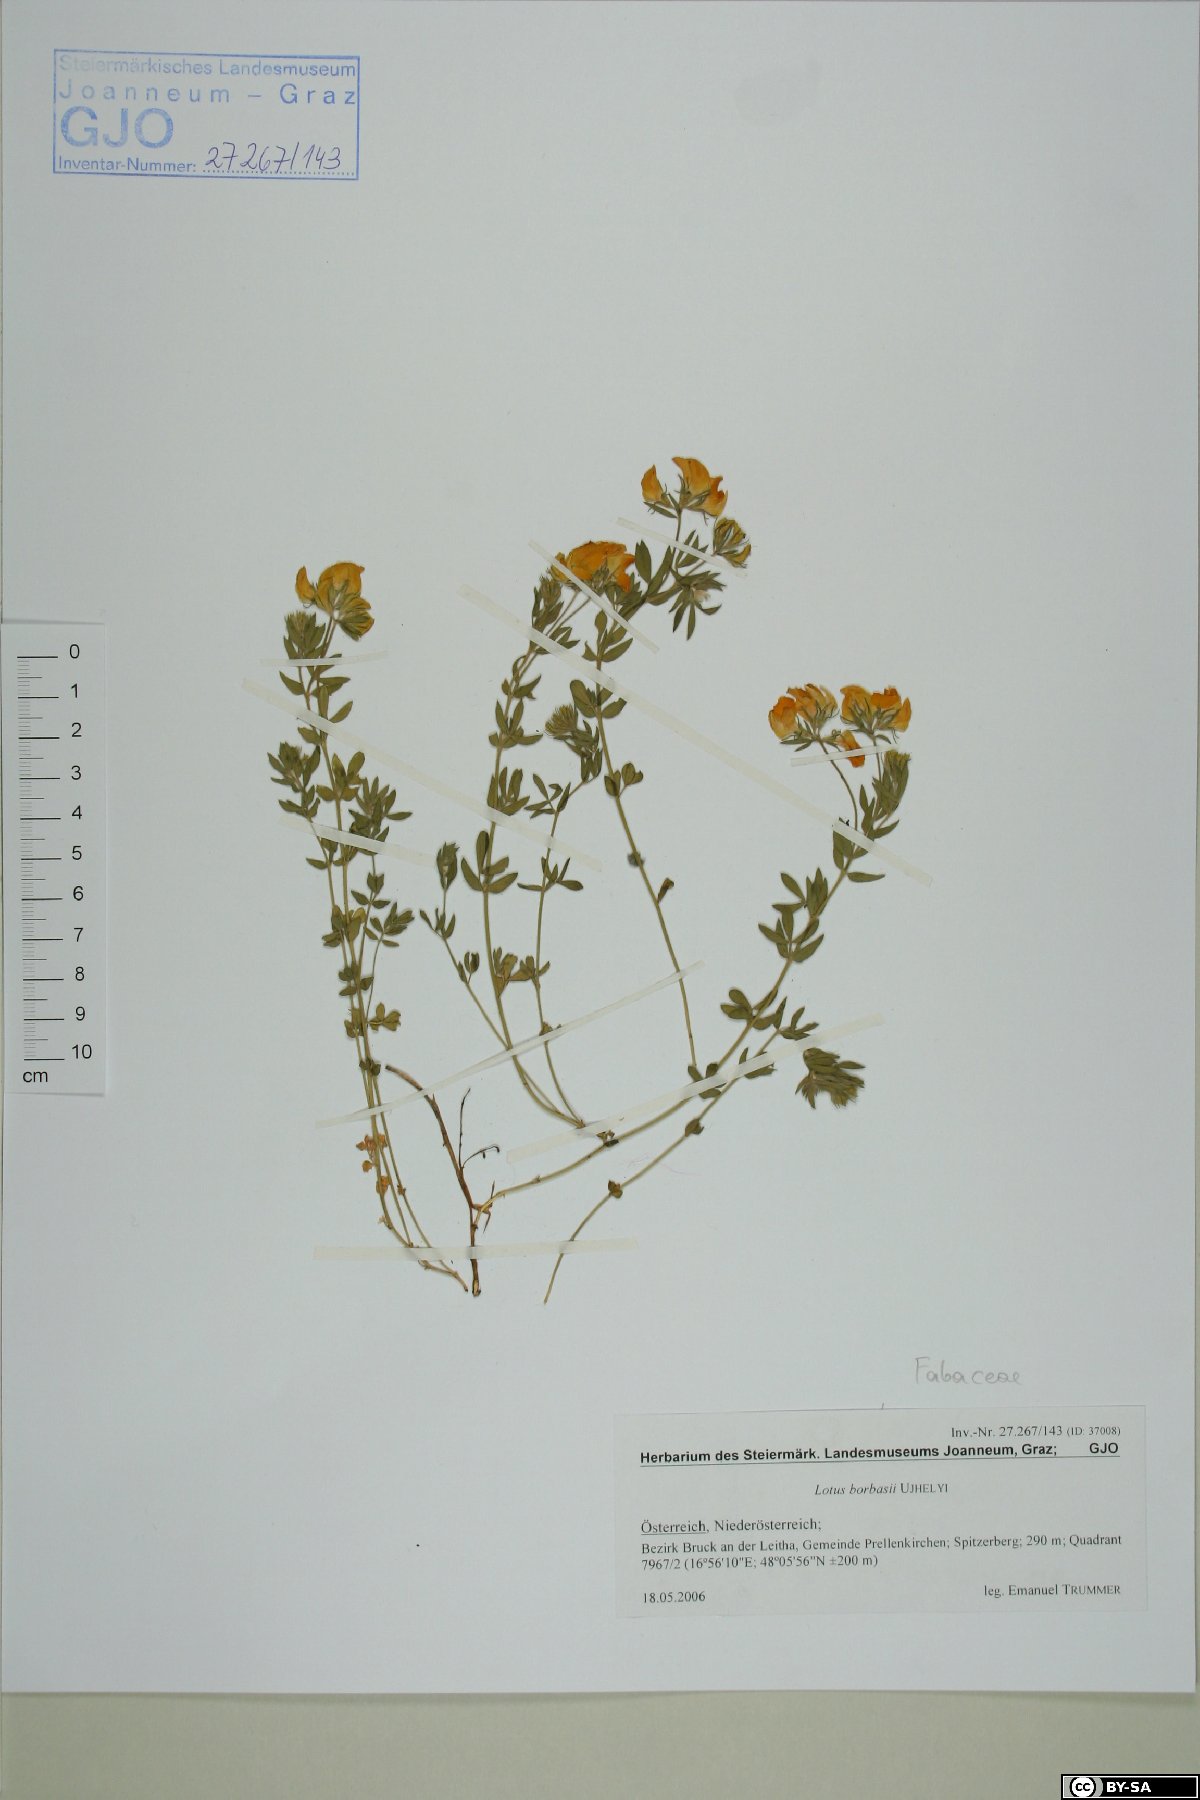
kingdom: Plantae
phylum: Tracheophyta
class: Magnoliopsida
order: Fabales
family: Fabaceae
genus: Lotus
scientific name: Lotus borbasii
